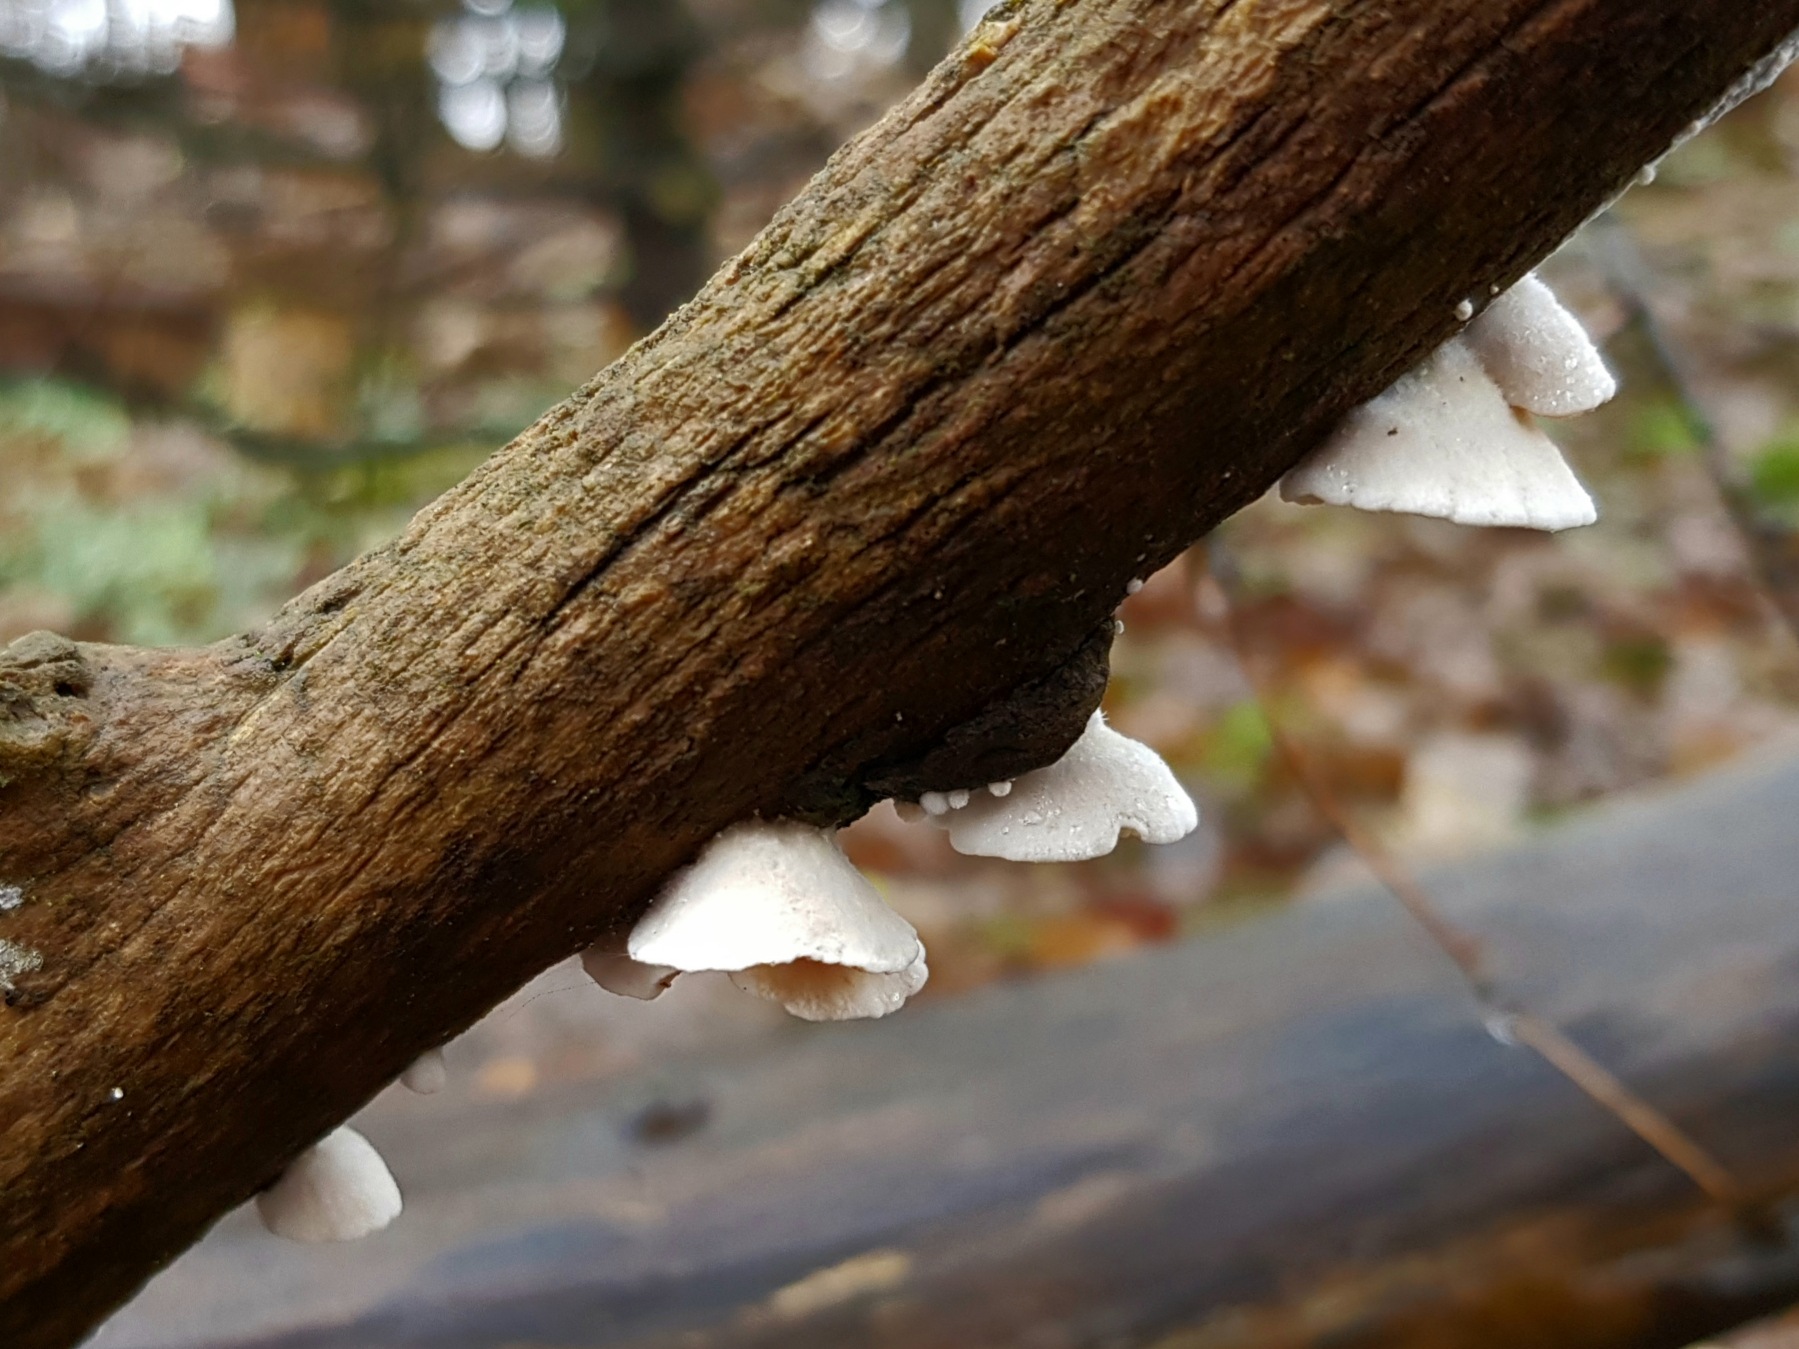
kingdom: Fungi
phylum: Basidiomycota
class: Agaricomycetes
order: Agaricales
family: Crepidotaceae
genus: Crepidotus
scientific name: Crepidotus
